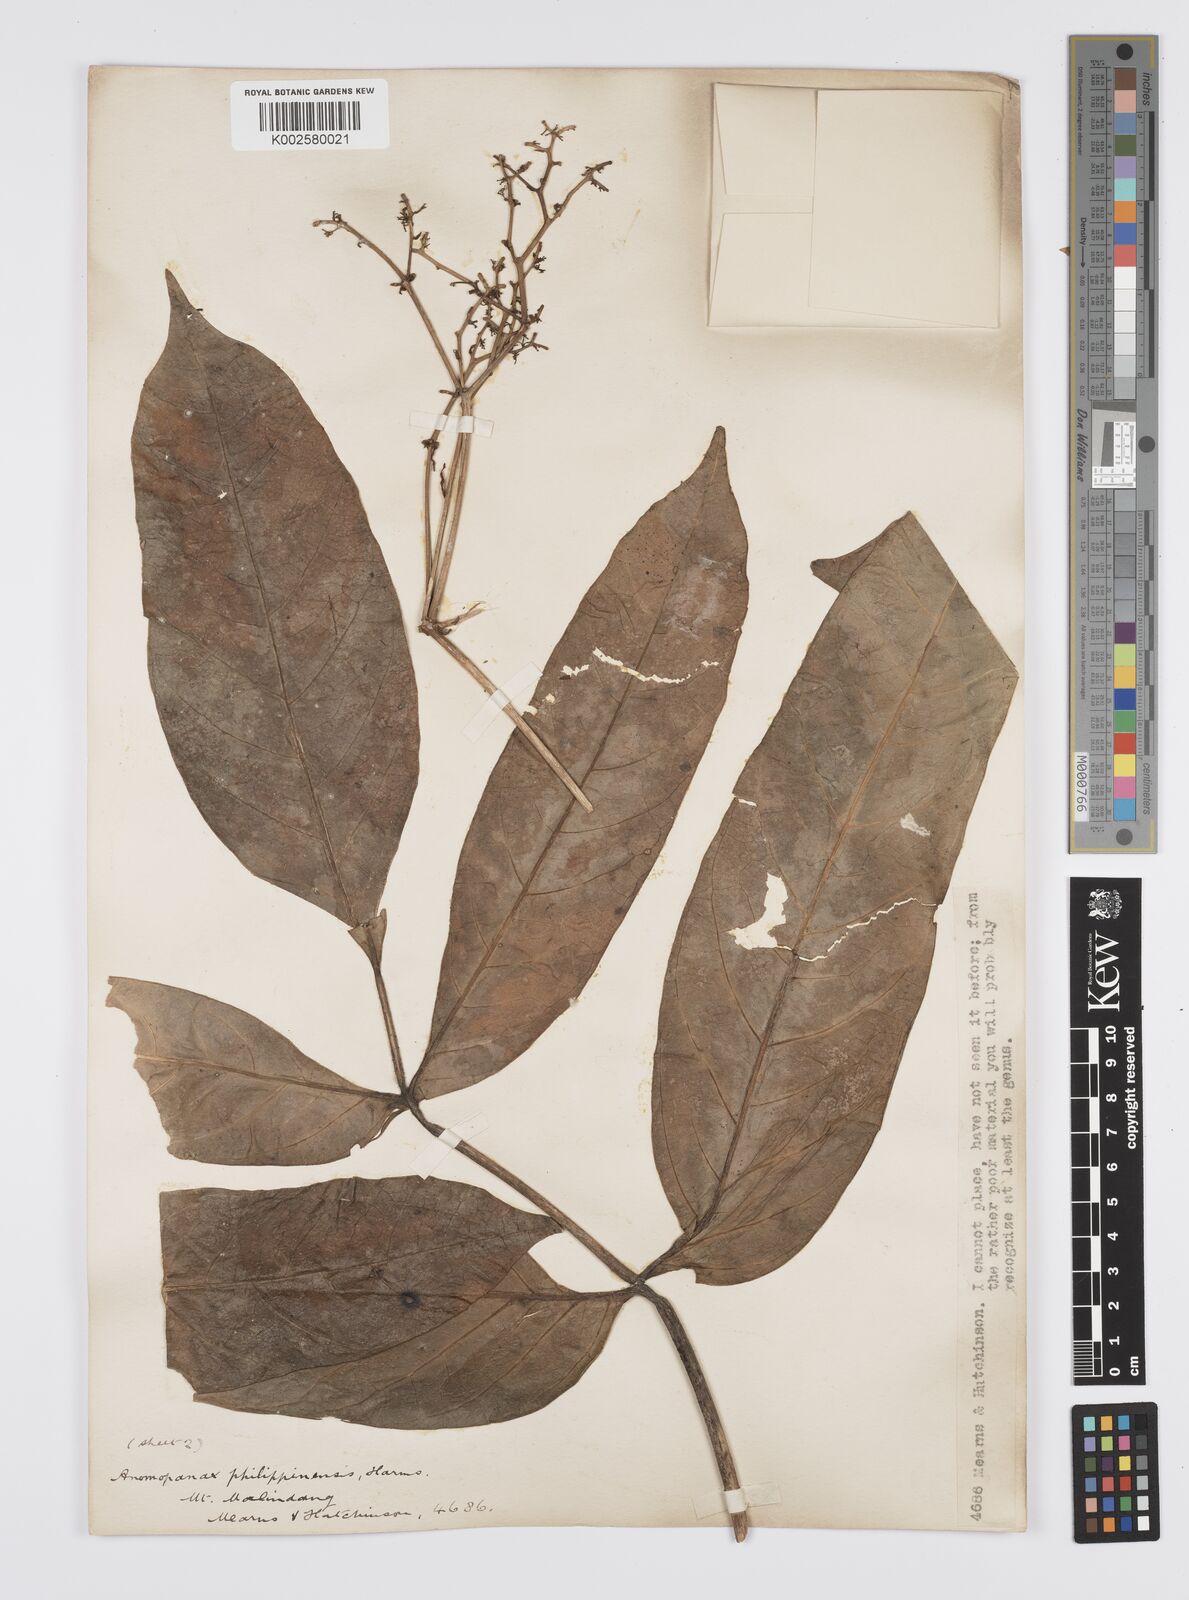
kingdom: Plantae
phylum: Tracheophyta
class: Magnoliopsida
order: Apiales
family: Apiaceae
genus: Mackinlaya
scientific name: Mackinlaya celebica
